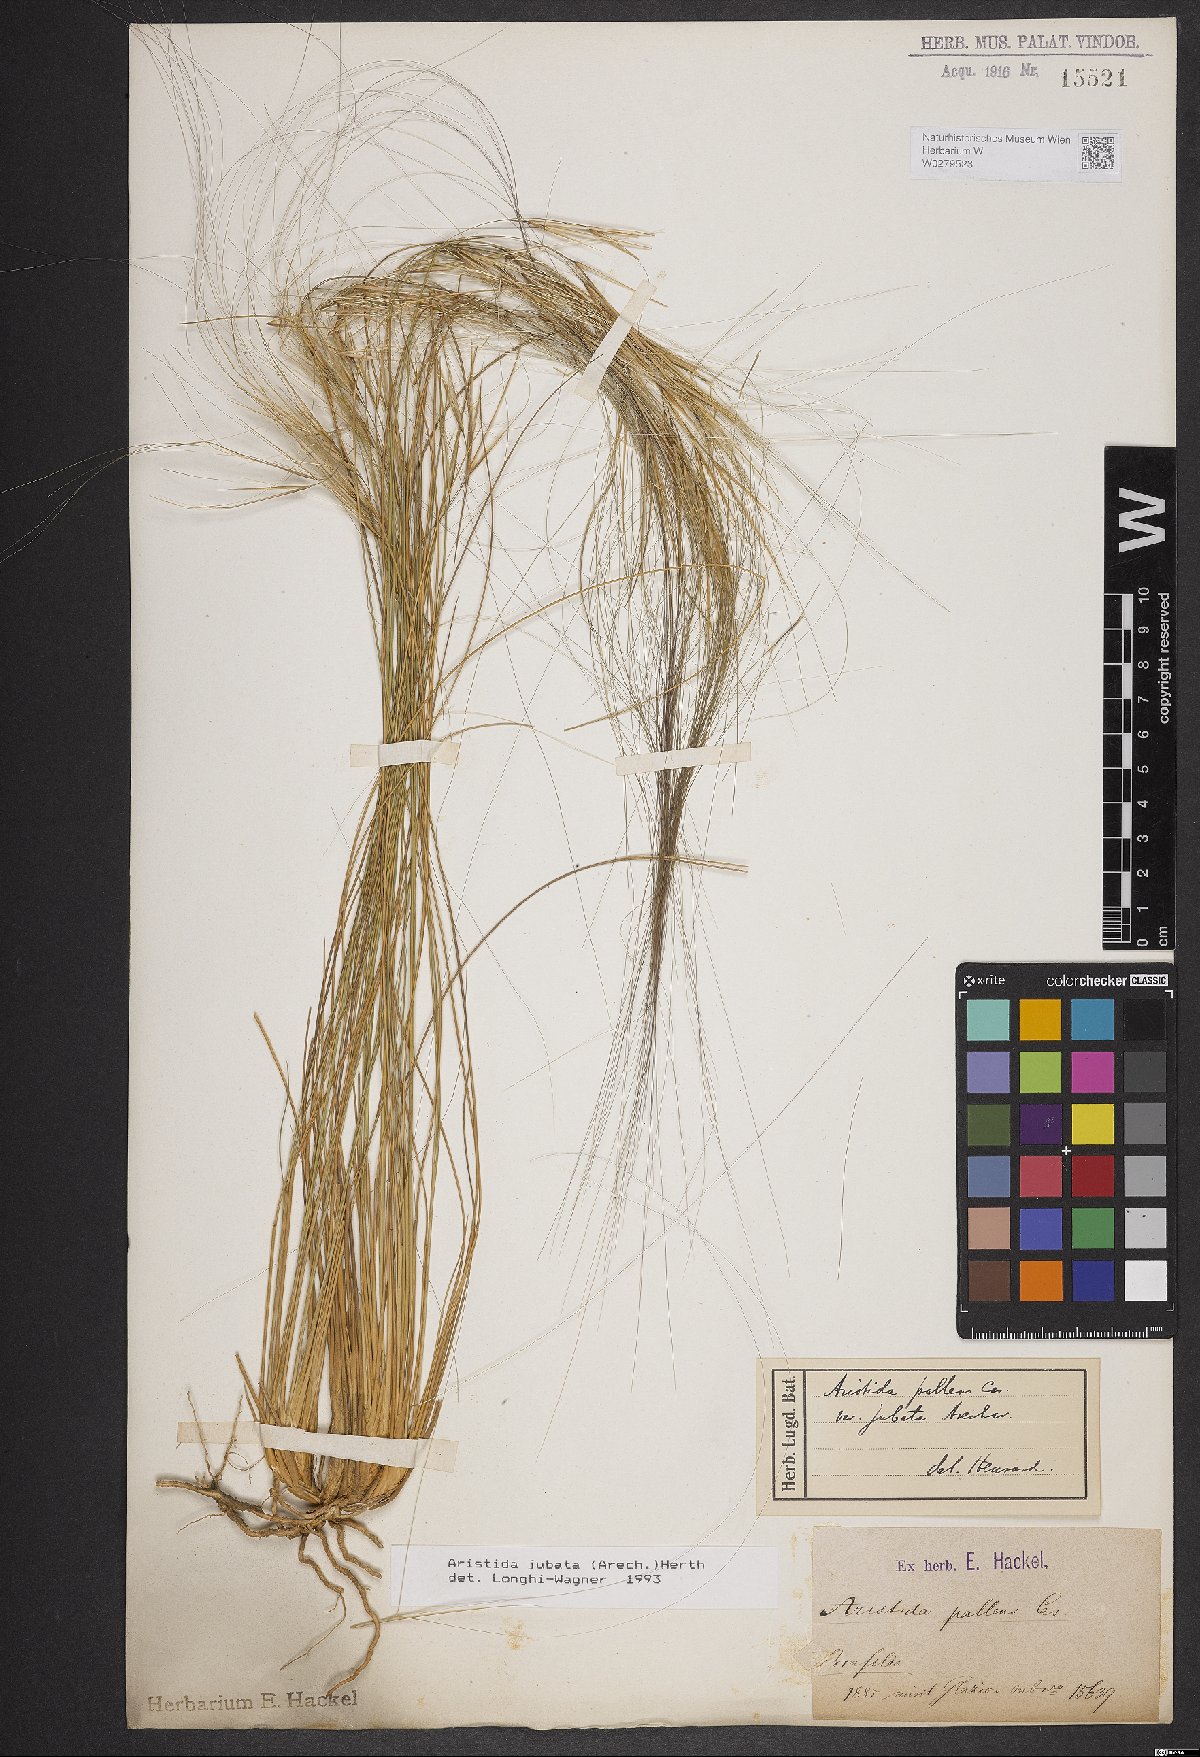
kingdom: Plantae
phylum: Tracheophyta
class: Liliopsida
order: Poales
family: Poaceae
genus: Aristida
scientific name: Aristida jubata
